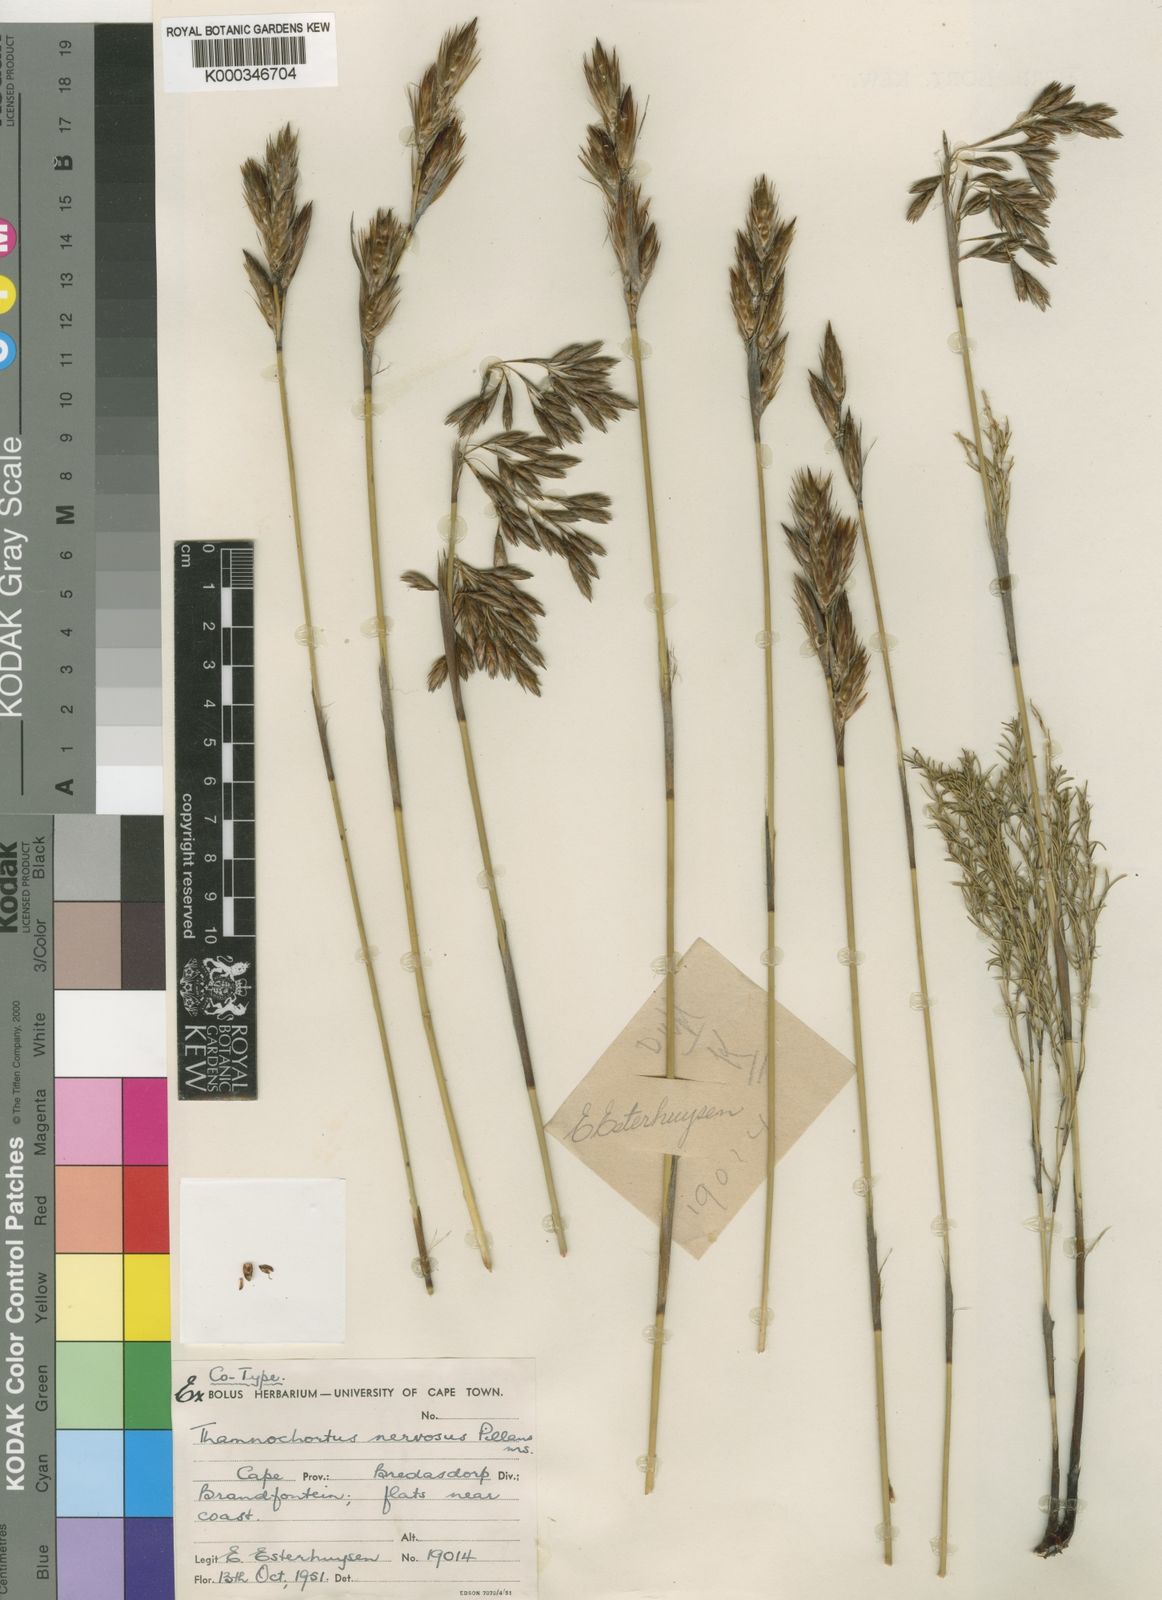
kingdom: Plantae
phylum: Tracheophyta
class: Liliopsida
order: Poales
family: Restionaceae
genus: Thamnochortus
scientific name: Thamnochortus guthrieae
